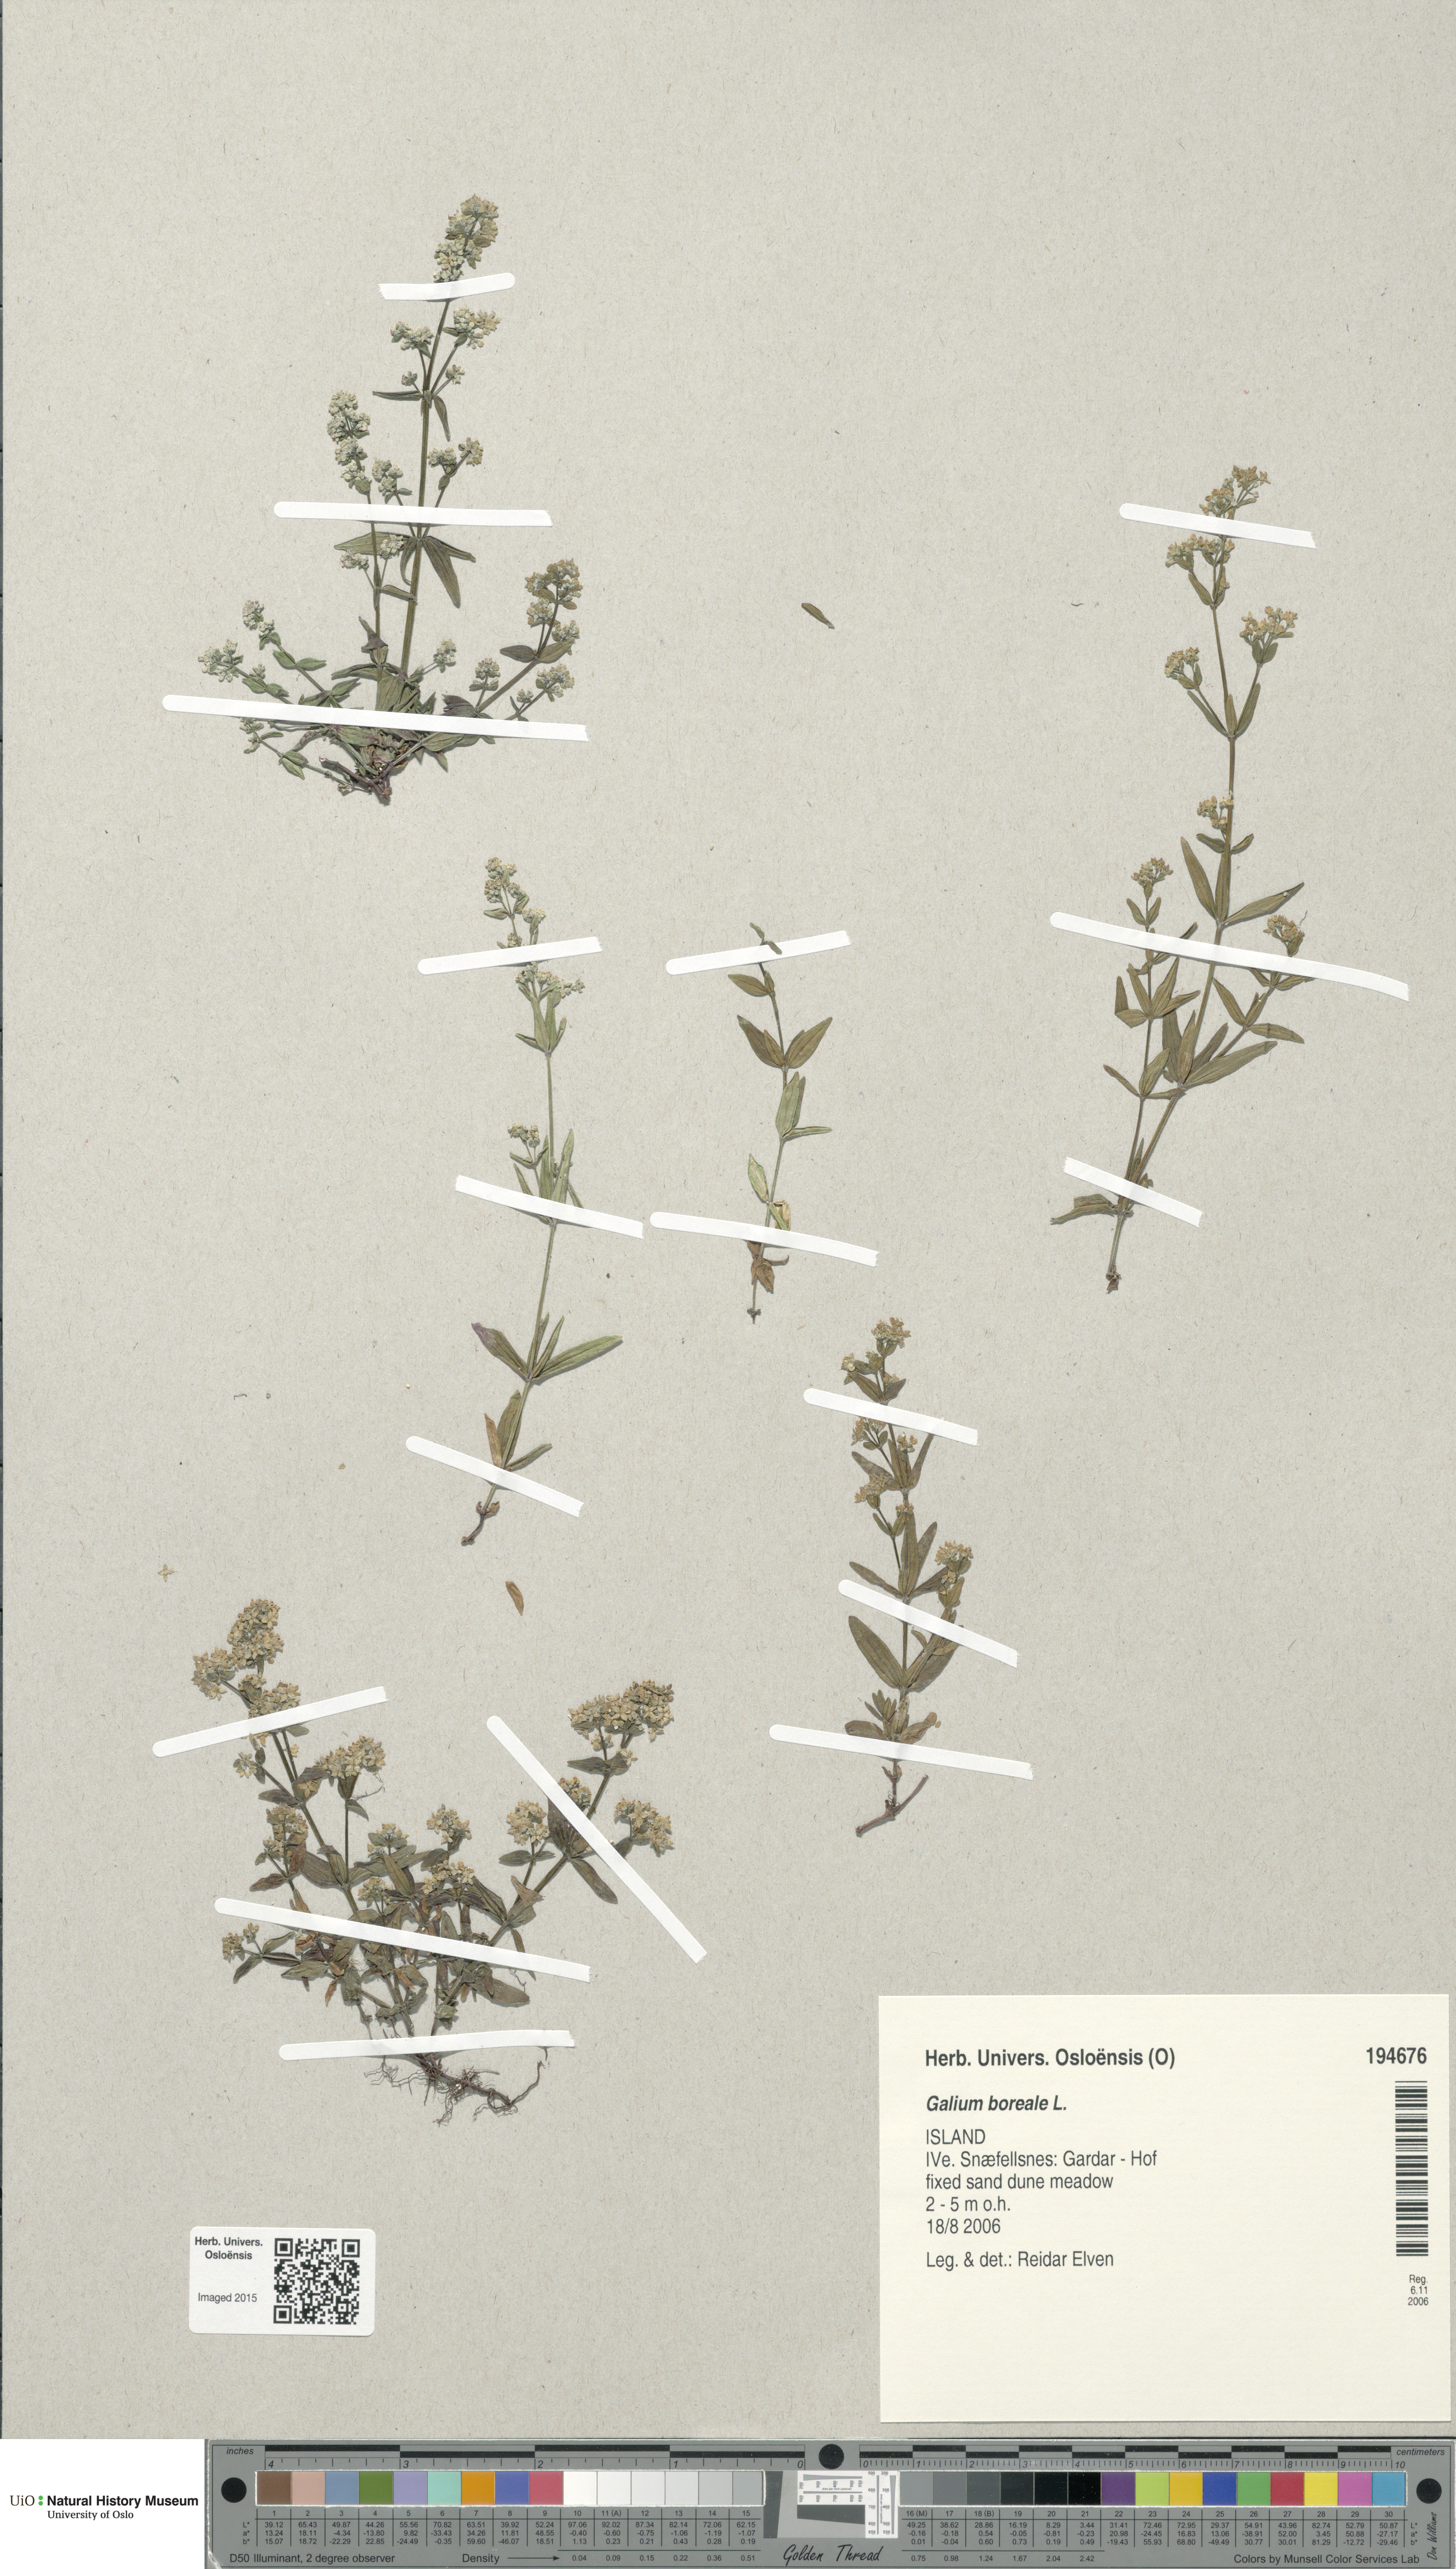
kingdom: Plantae
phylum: Tracheophyta
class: Magnoliopsida
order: Gentianales
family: Rubiaceae
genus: Galium
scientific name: Galium boreale
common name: Northern bedstraw
